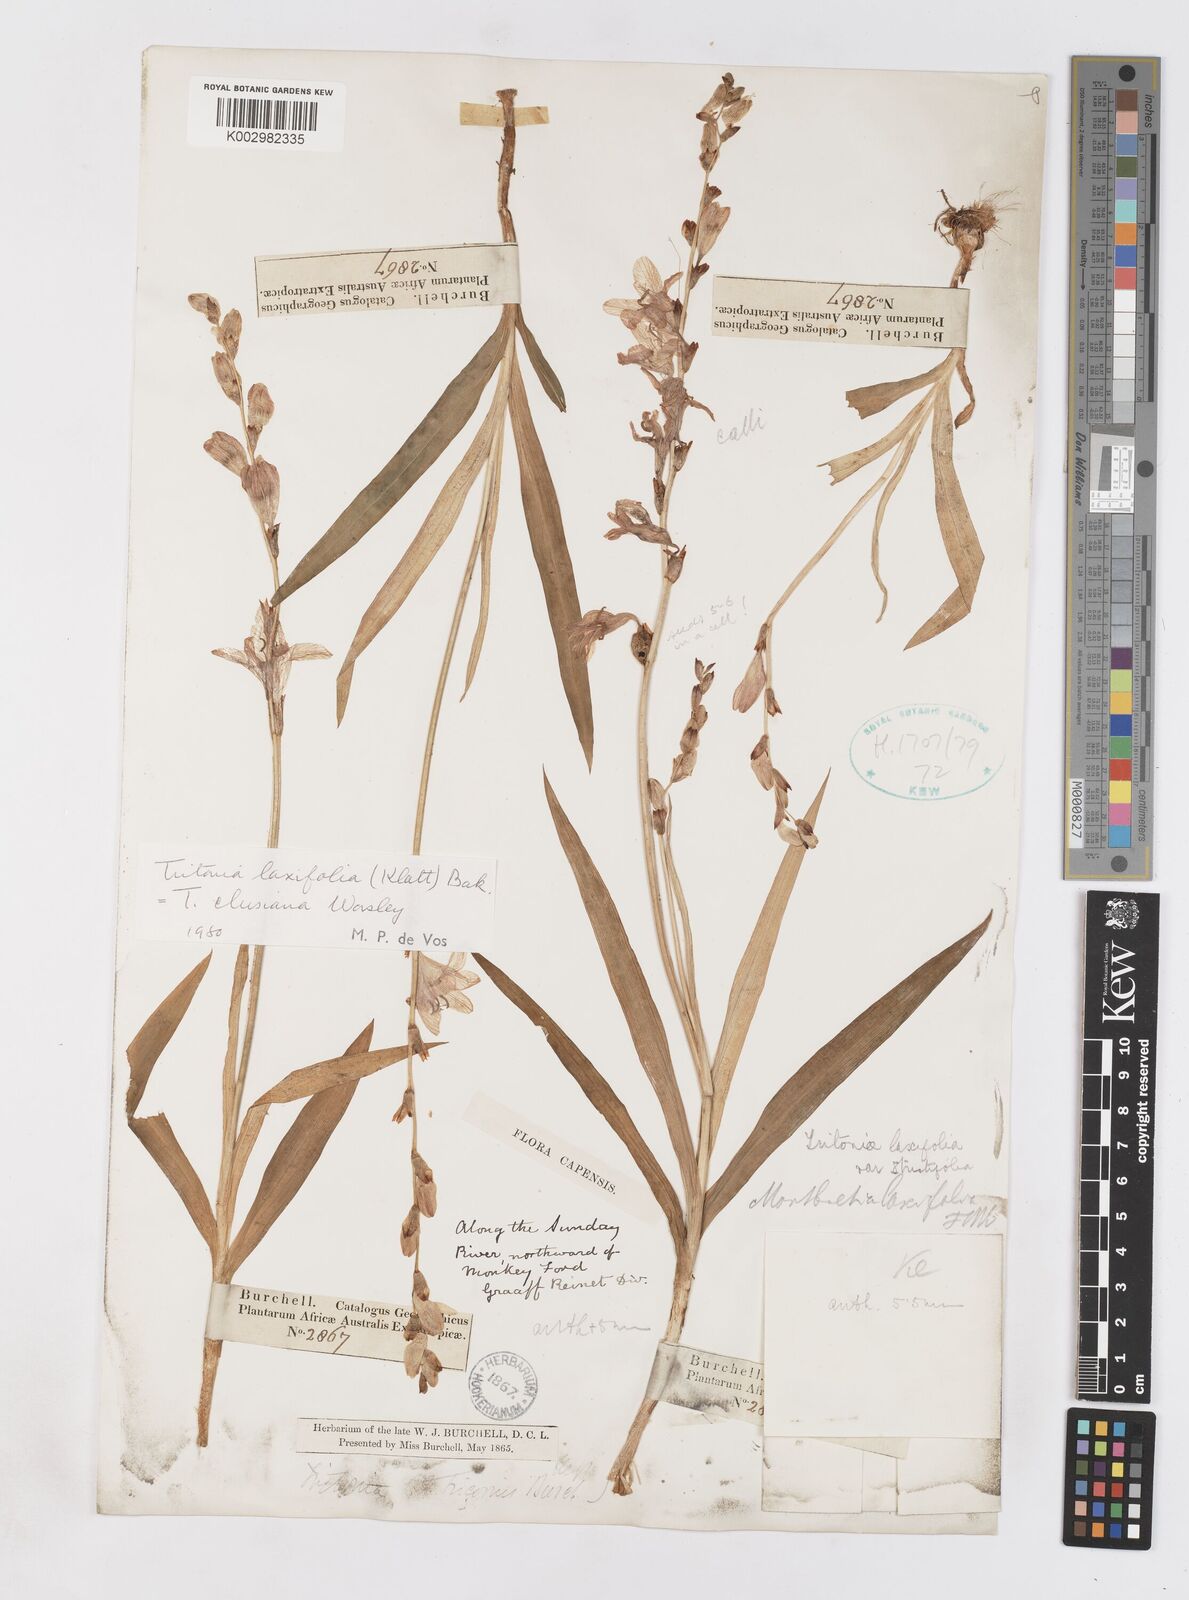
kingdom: Plantae
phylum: Tracheophyta
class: Liliopsida
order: Asparagales
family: Iridaceae
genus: Tritonia
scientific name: Tritonia laxifolia
